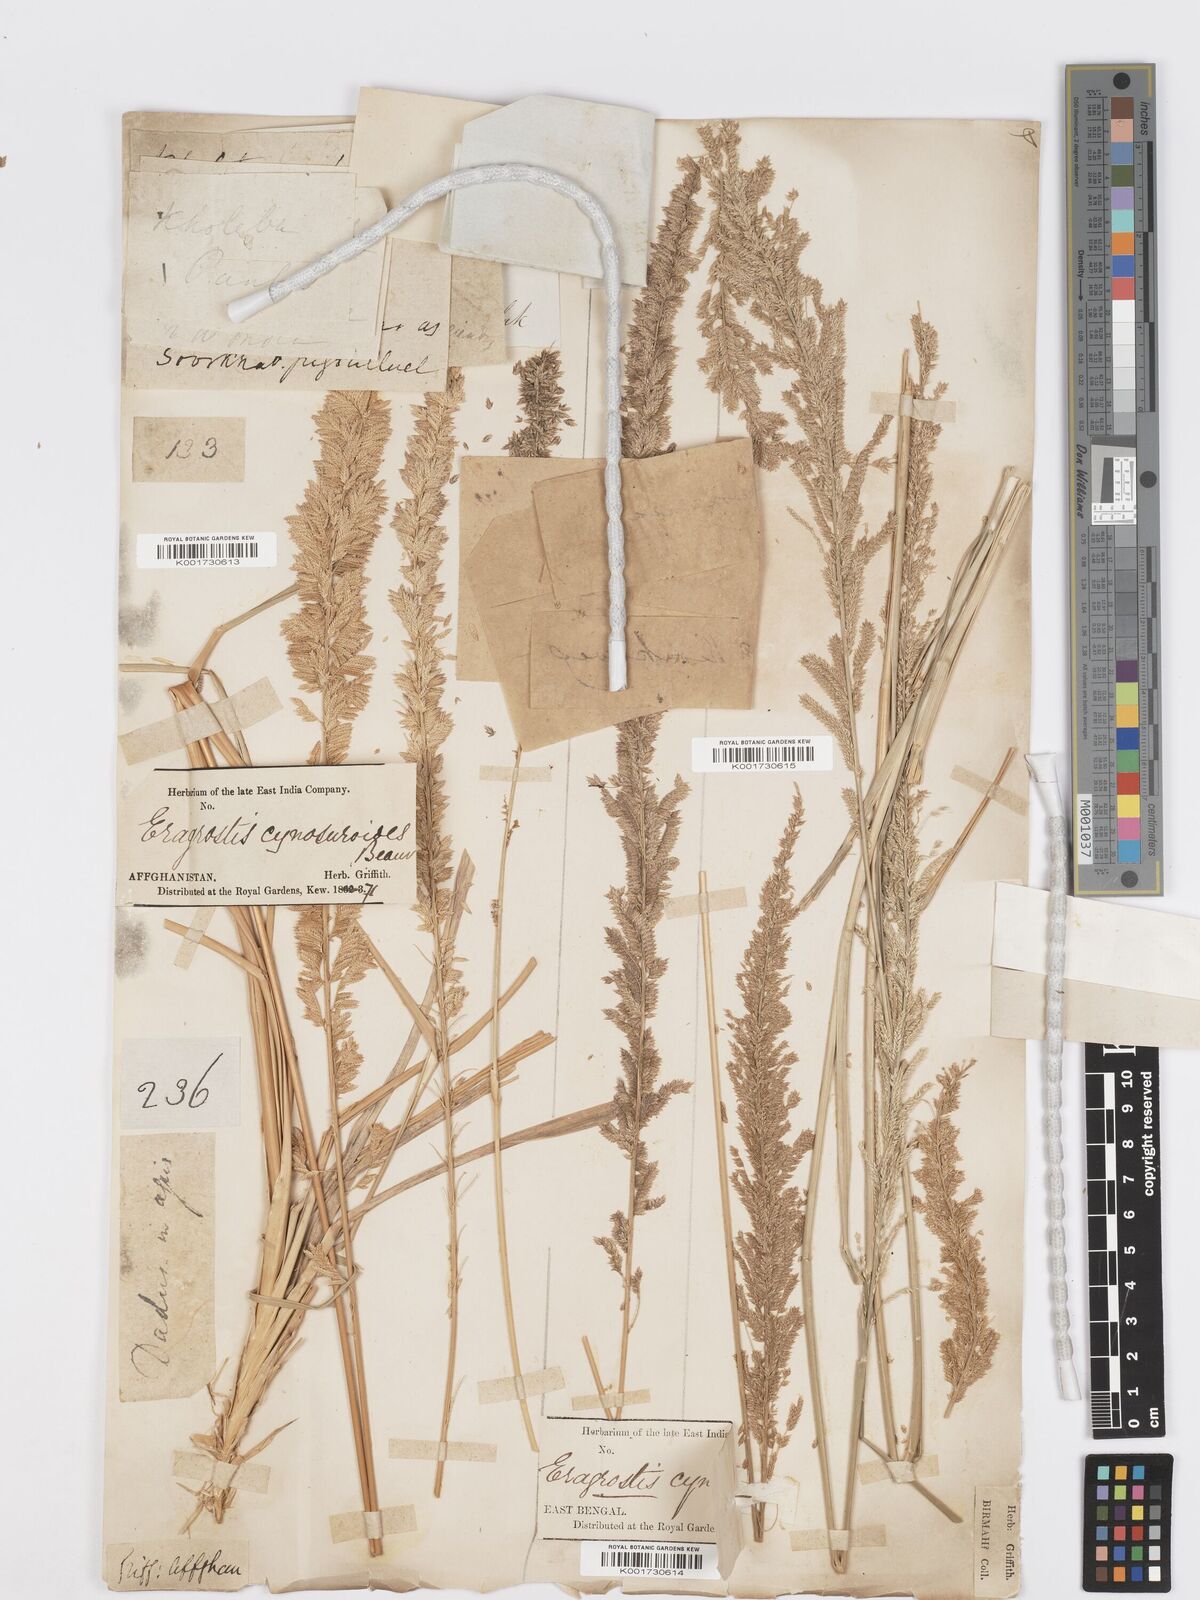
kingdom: Plantae
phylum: Tracheophyta
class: Liliopsida
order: Poales
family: Poaceae
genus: Desmostachya
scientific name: Desmostachya bipinnata
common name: Crowfoot grass
